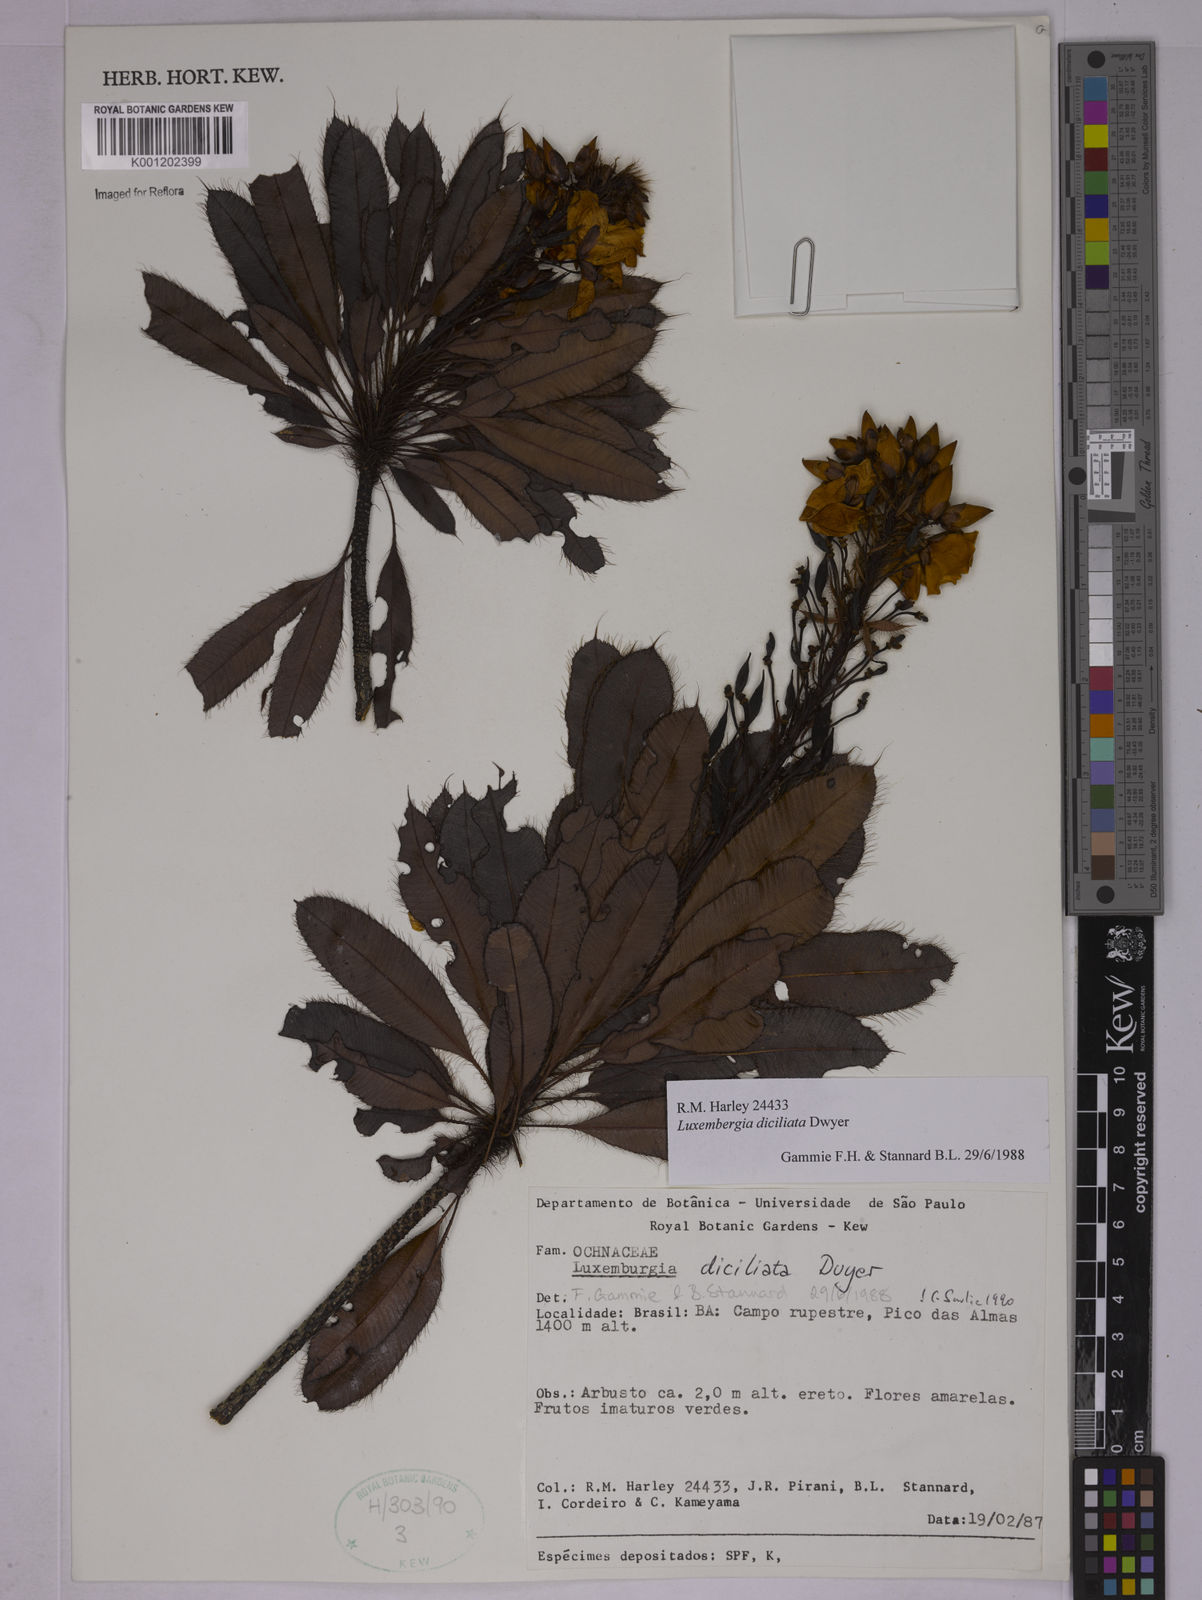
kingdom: Plantae
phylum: Tracheophyta
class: Magnoliopsida
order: Malpighiales
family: Ochnaceae
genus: Luxemburgia
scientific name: Luxemburgia diciliata
